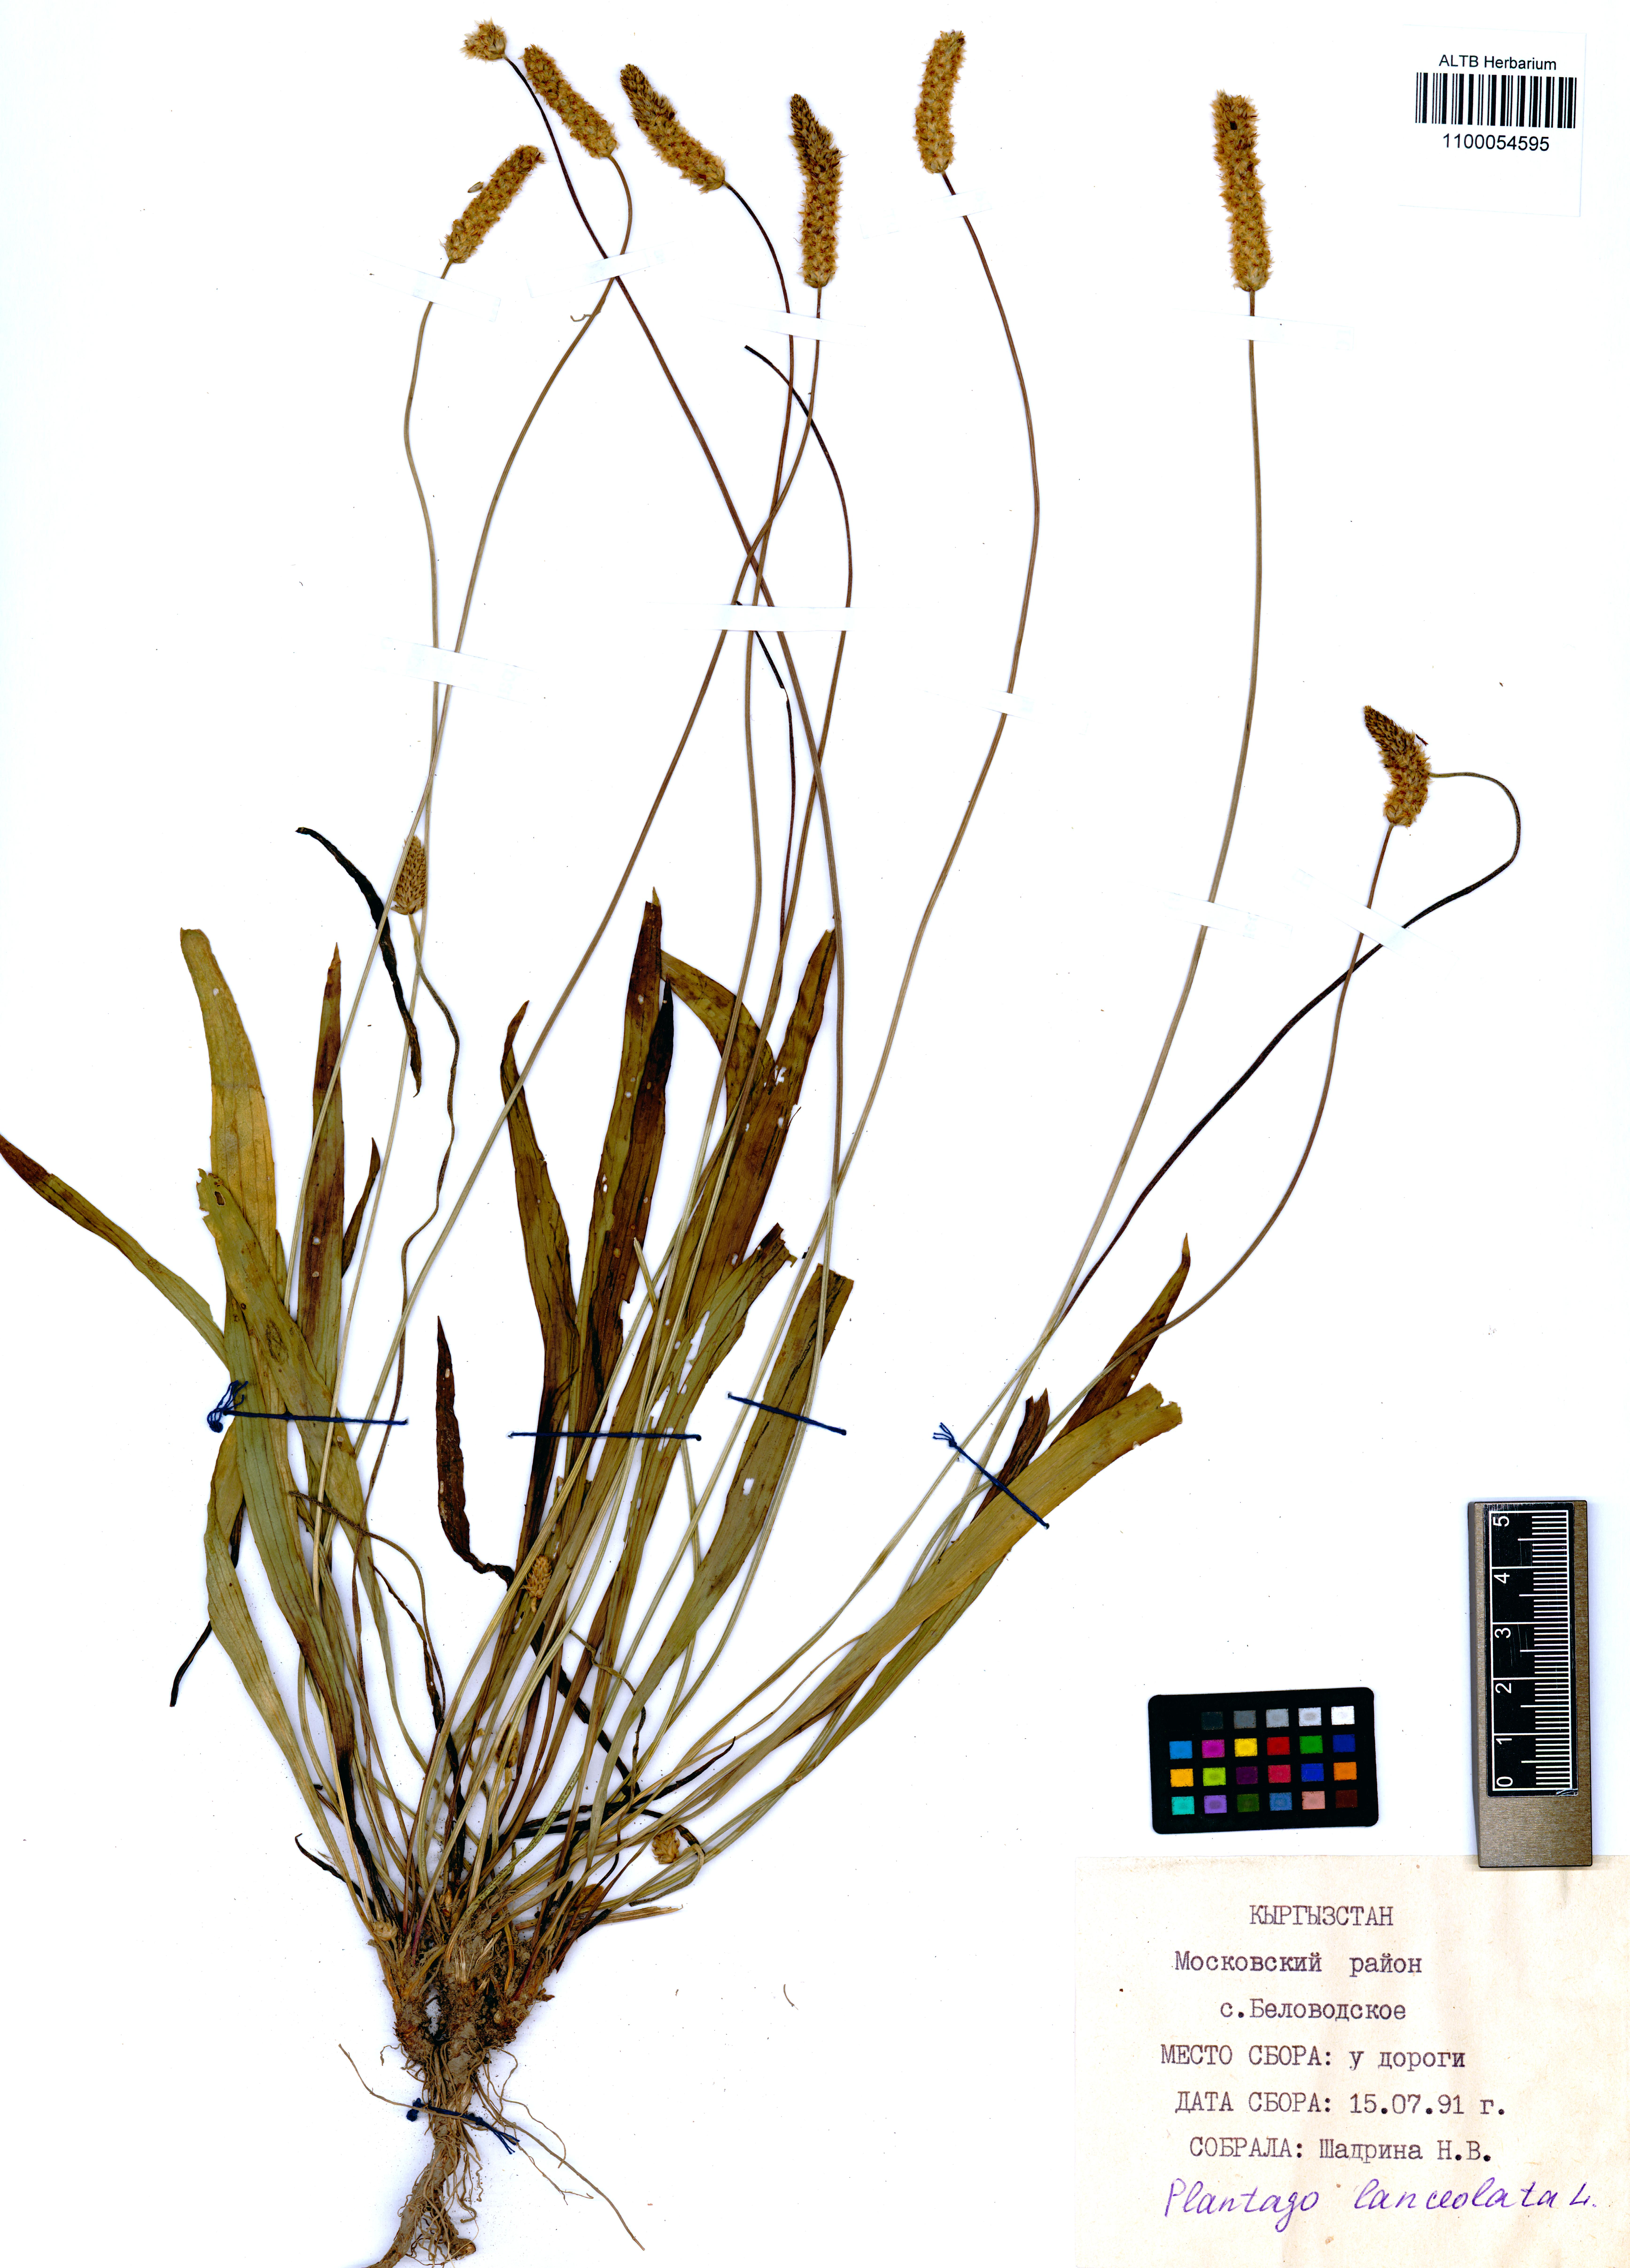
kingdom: Plantae
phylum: Tracheophyta
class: Magnoliopsida
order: Lamiales
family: Plantaginaceae
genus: Plantago
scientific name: Plantago lanceolata
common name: Ribwort plantain
